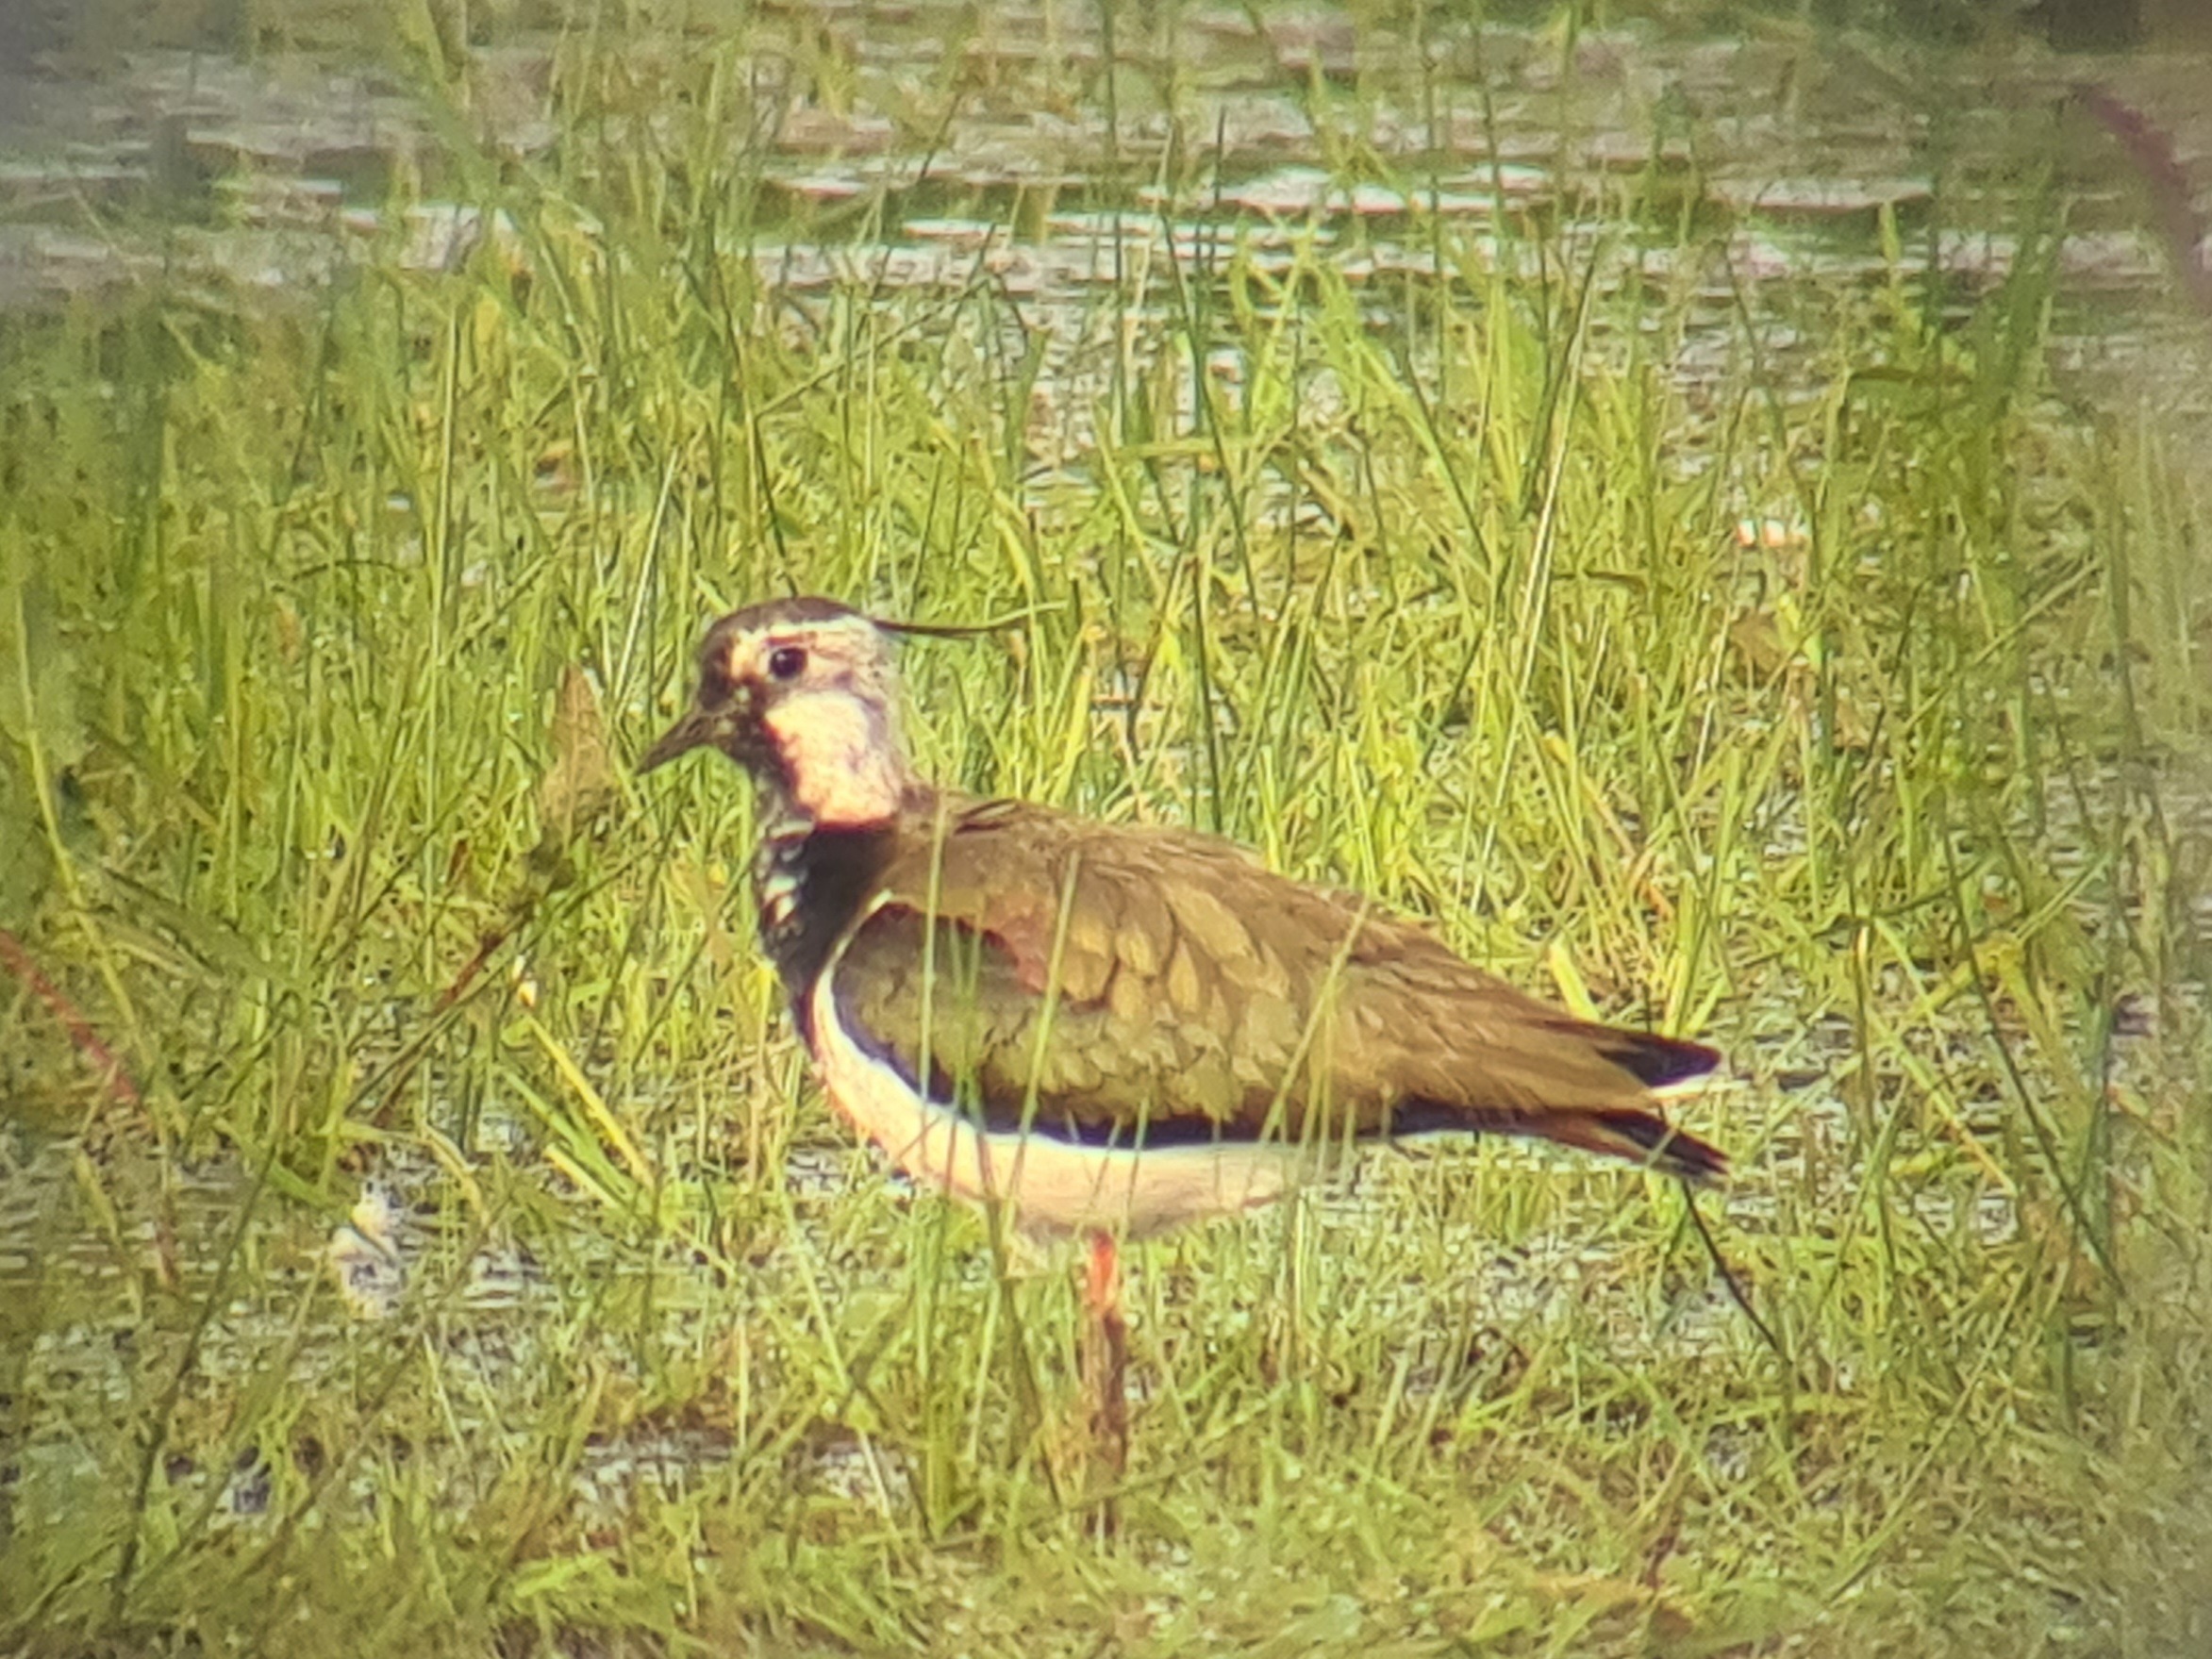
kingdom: Animalia
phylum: Chordata
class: Aves
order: Charadriiformes
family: Charadriidae
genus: Vanellus
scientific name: Vanellus vanellus
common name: Vibe
